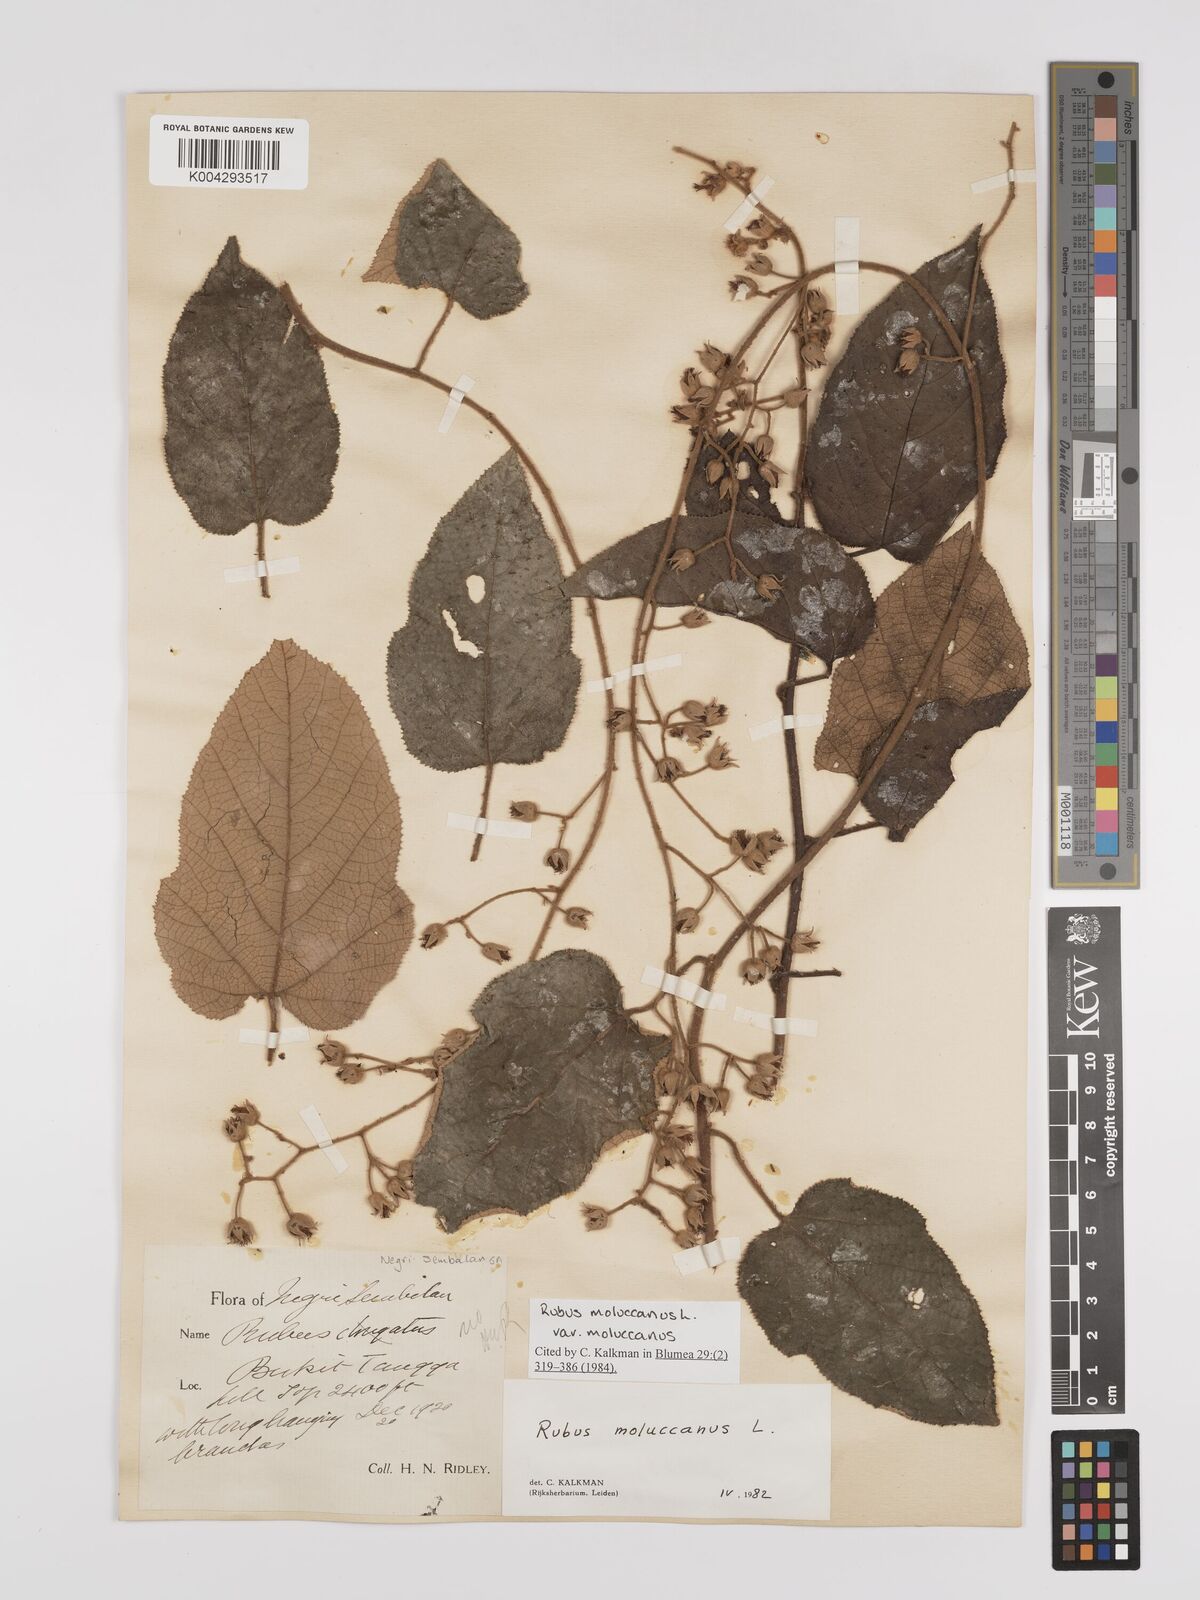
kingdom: Plantae
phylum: Tracheophyta
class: Magnoliopsida
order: Rosales
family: Rosaceae
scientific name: Rosaceae
